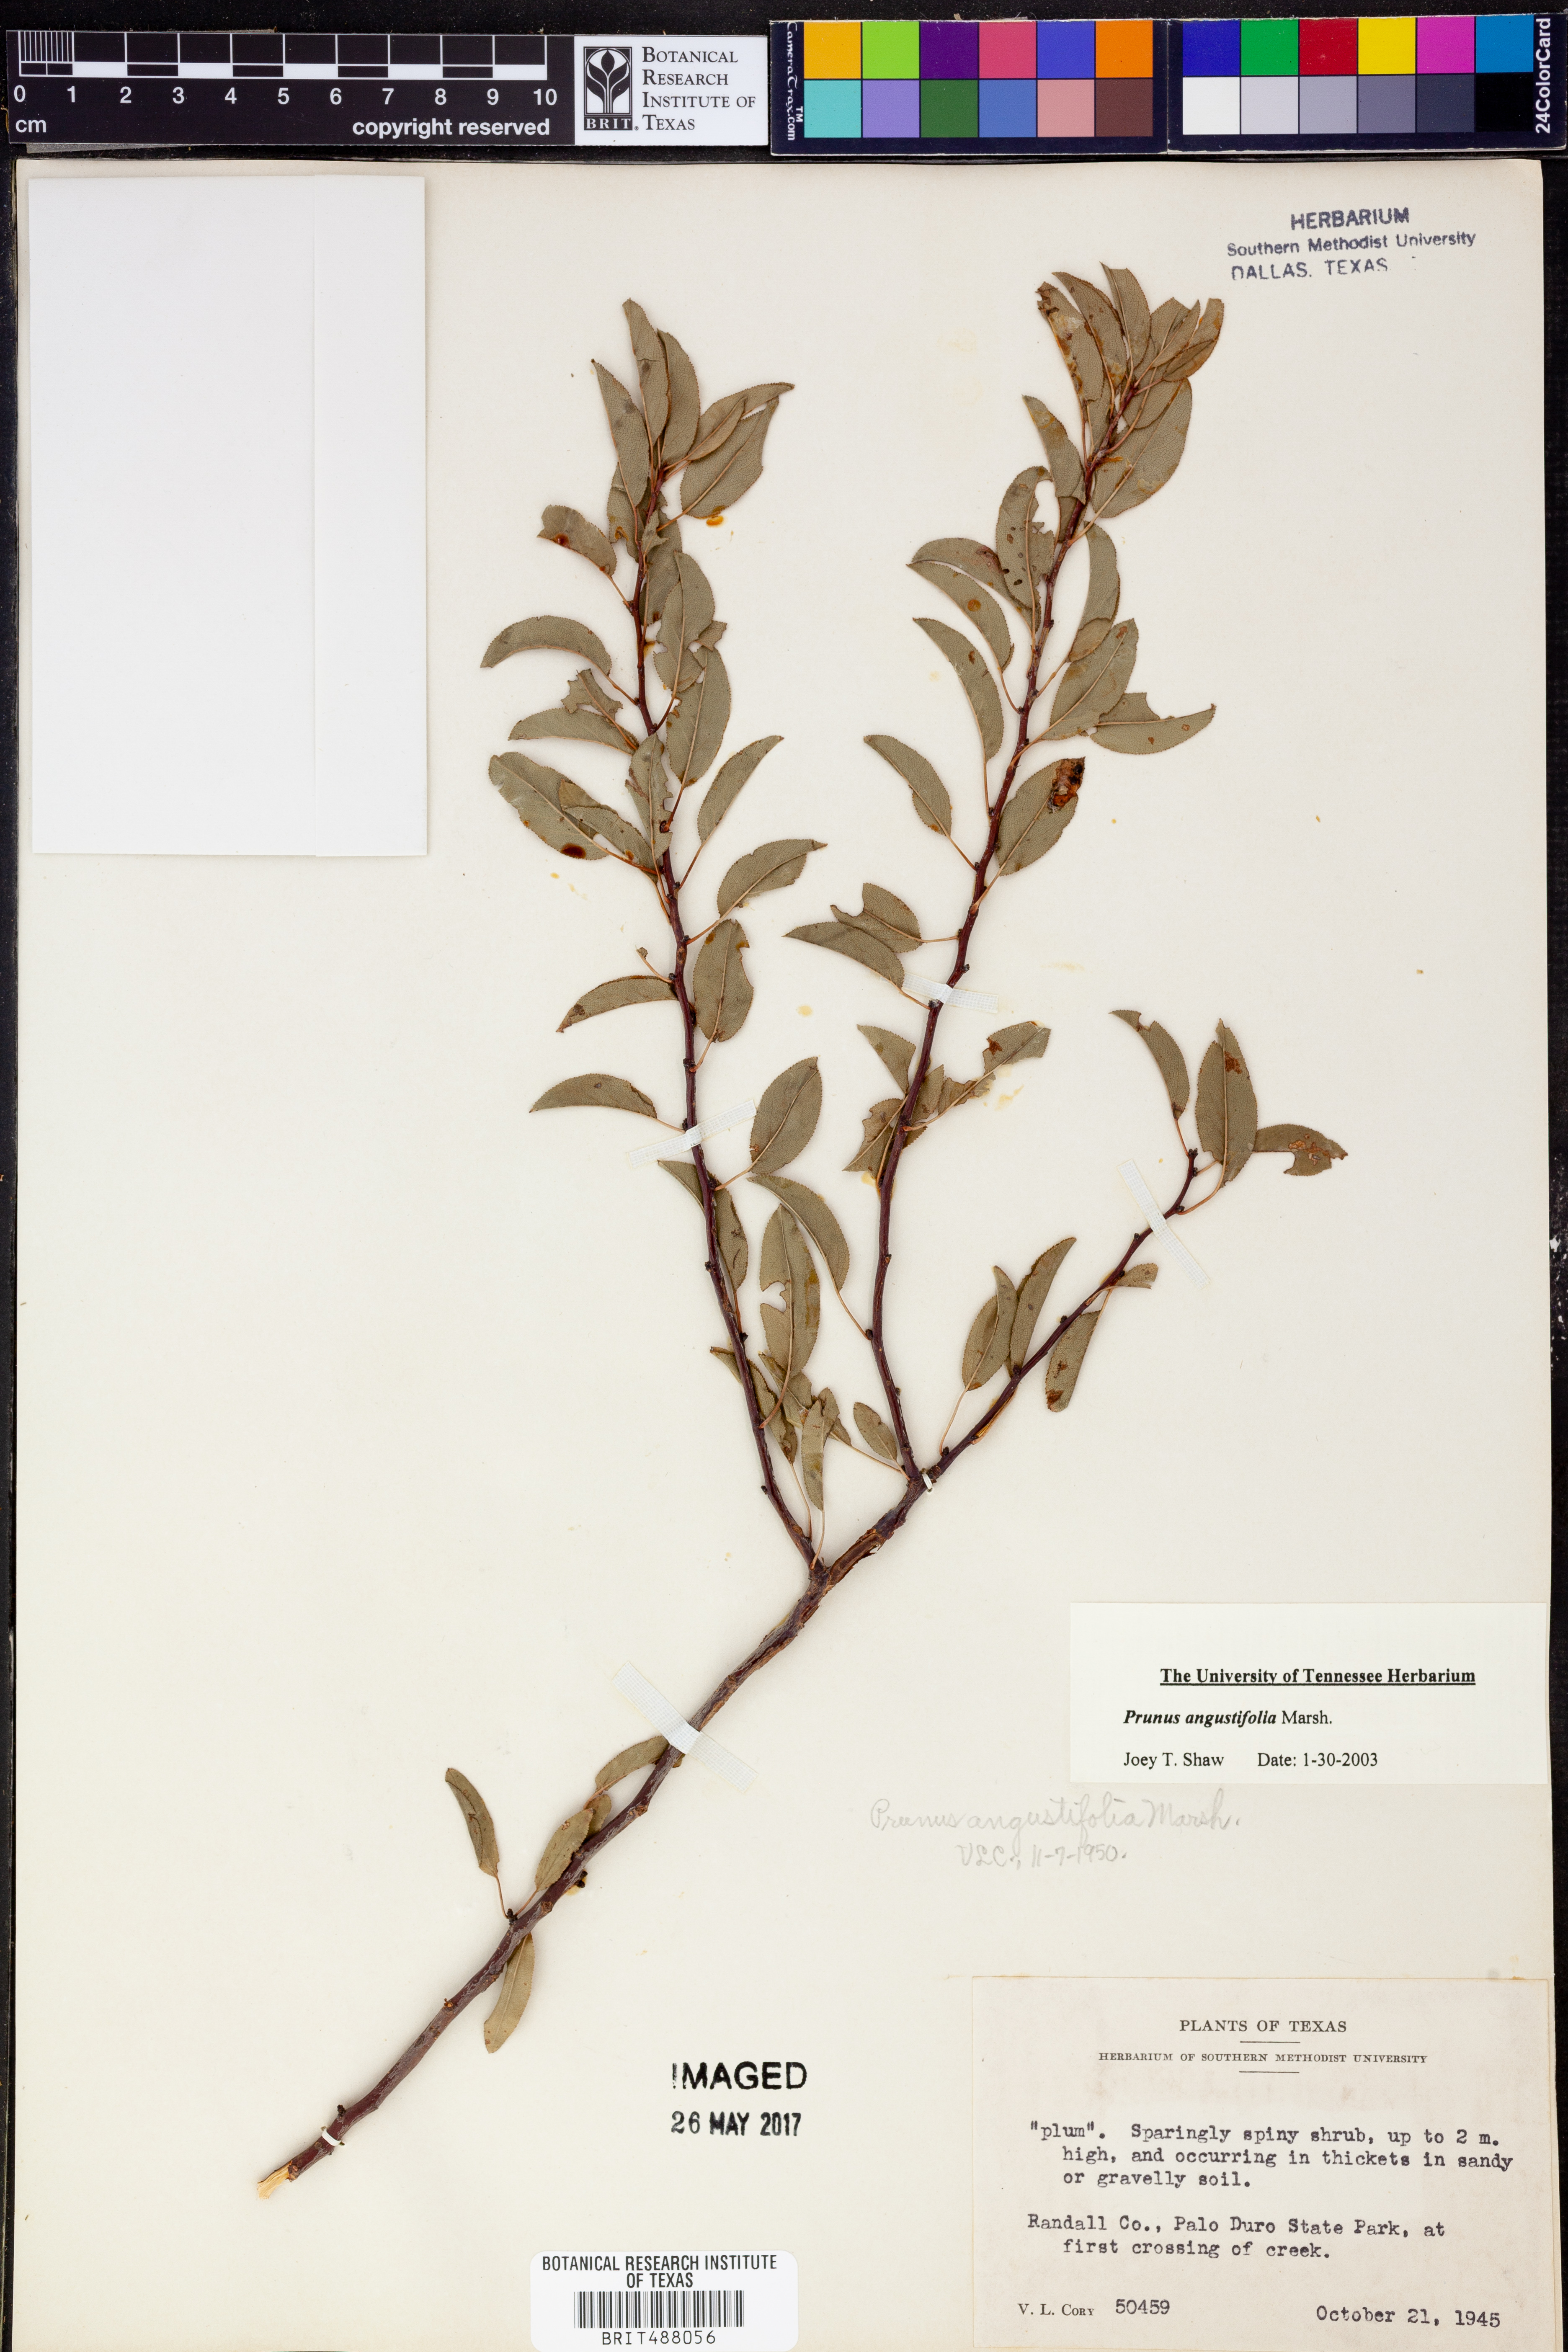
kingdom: Plantae
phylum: Tracheophyta
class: Magnoliopsida
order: Rosales
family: Rosaceae
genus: Prunus
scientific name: Prunus angustifolia
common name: Cherokee plum
